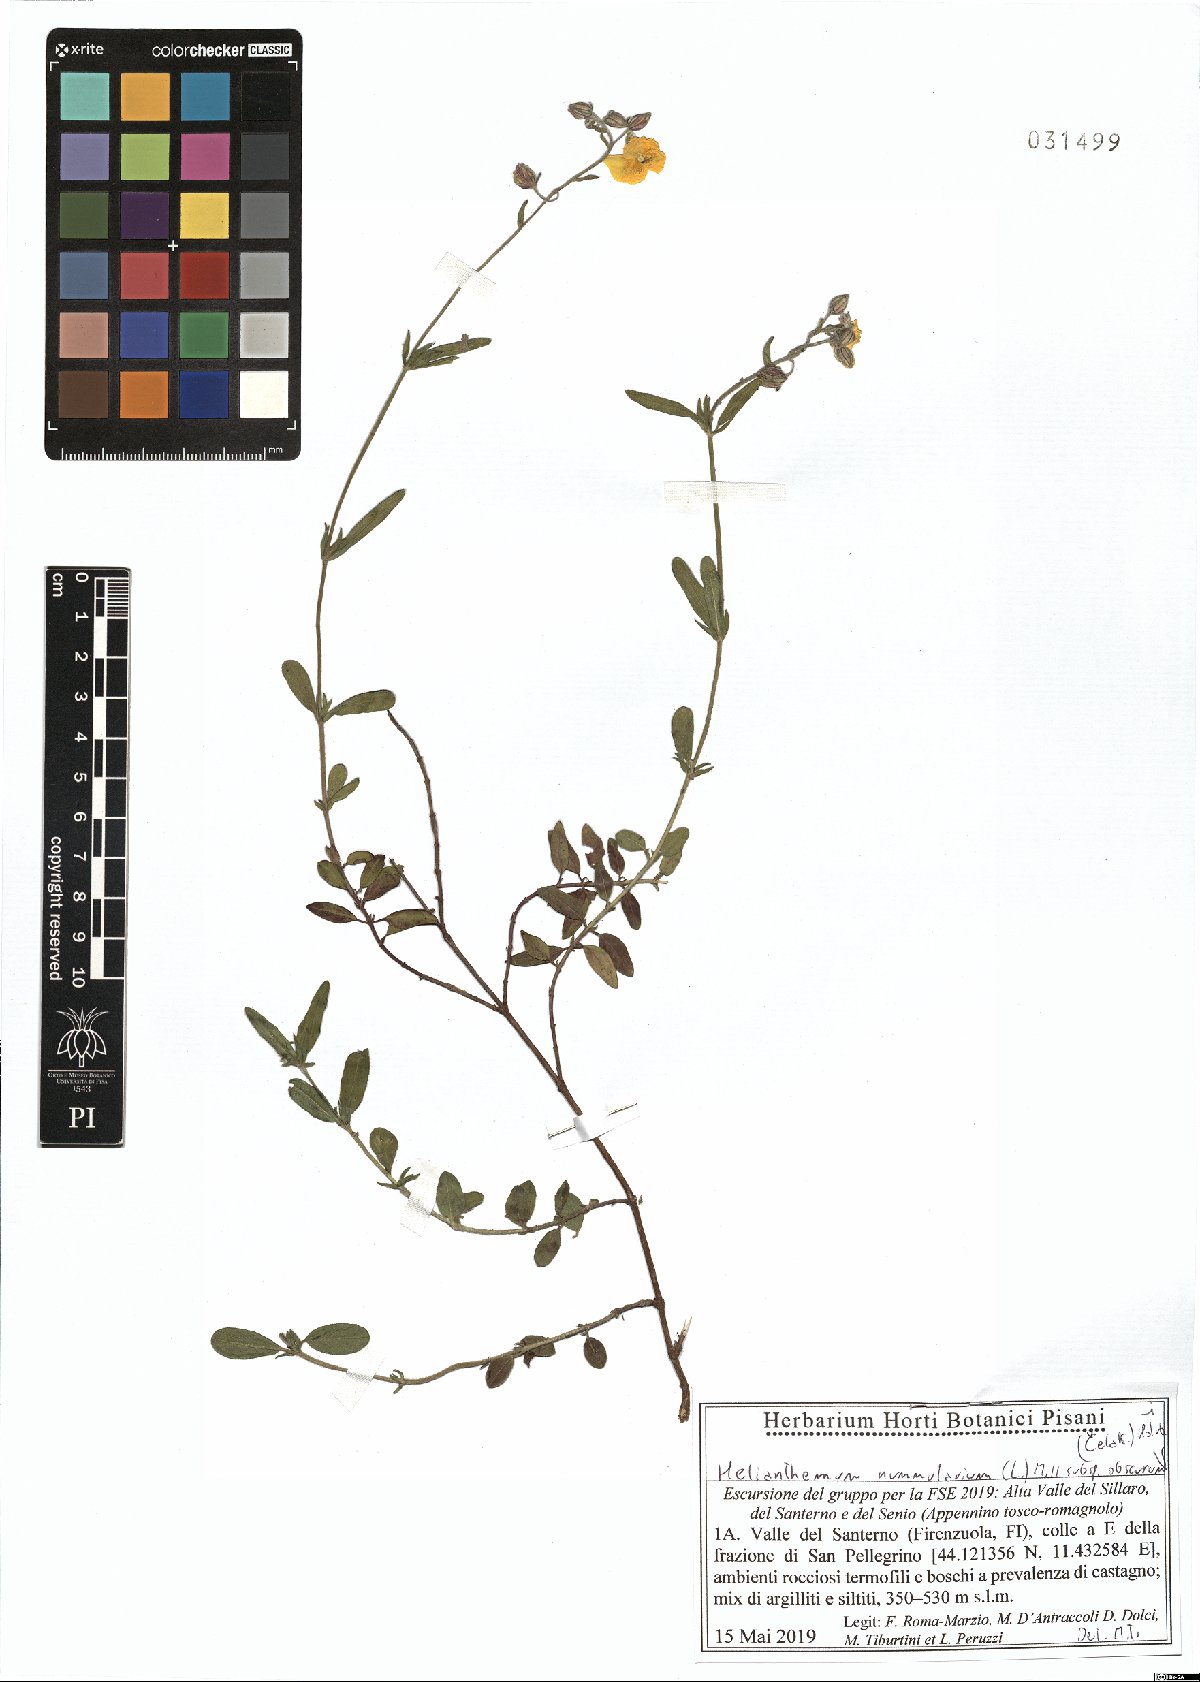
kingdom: Plantae
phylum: Tracheophyta
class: Magnoliopsida
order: Malvales
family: Cistaceae
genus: Helianthemum
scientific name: Helianthemum nummularium
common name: Common rock-rose
